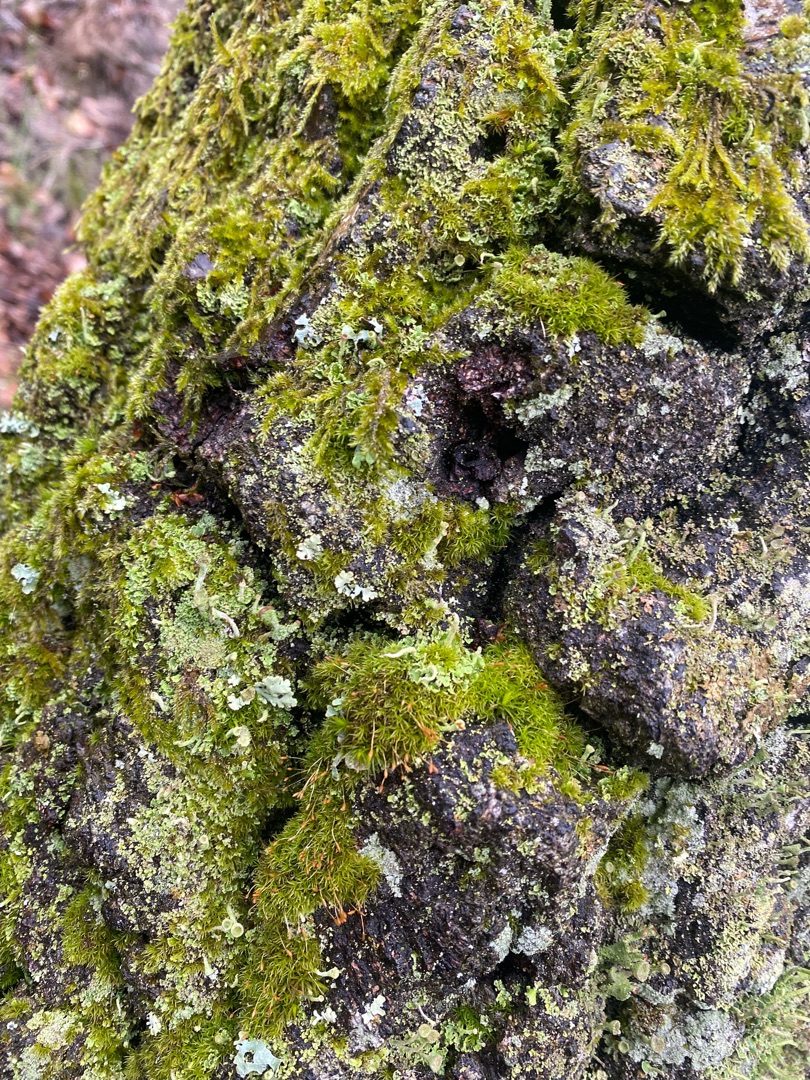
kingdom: Plantae
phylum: Bryophyta
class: Bryopsida
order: Dicranales
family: Rhabdoweisiaceae
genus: Dicranoweisia
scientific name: Dicranoweisia cirrata
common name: Almindelig krøltuemos
